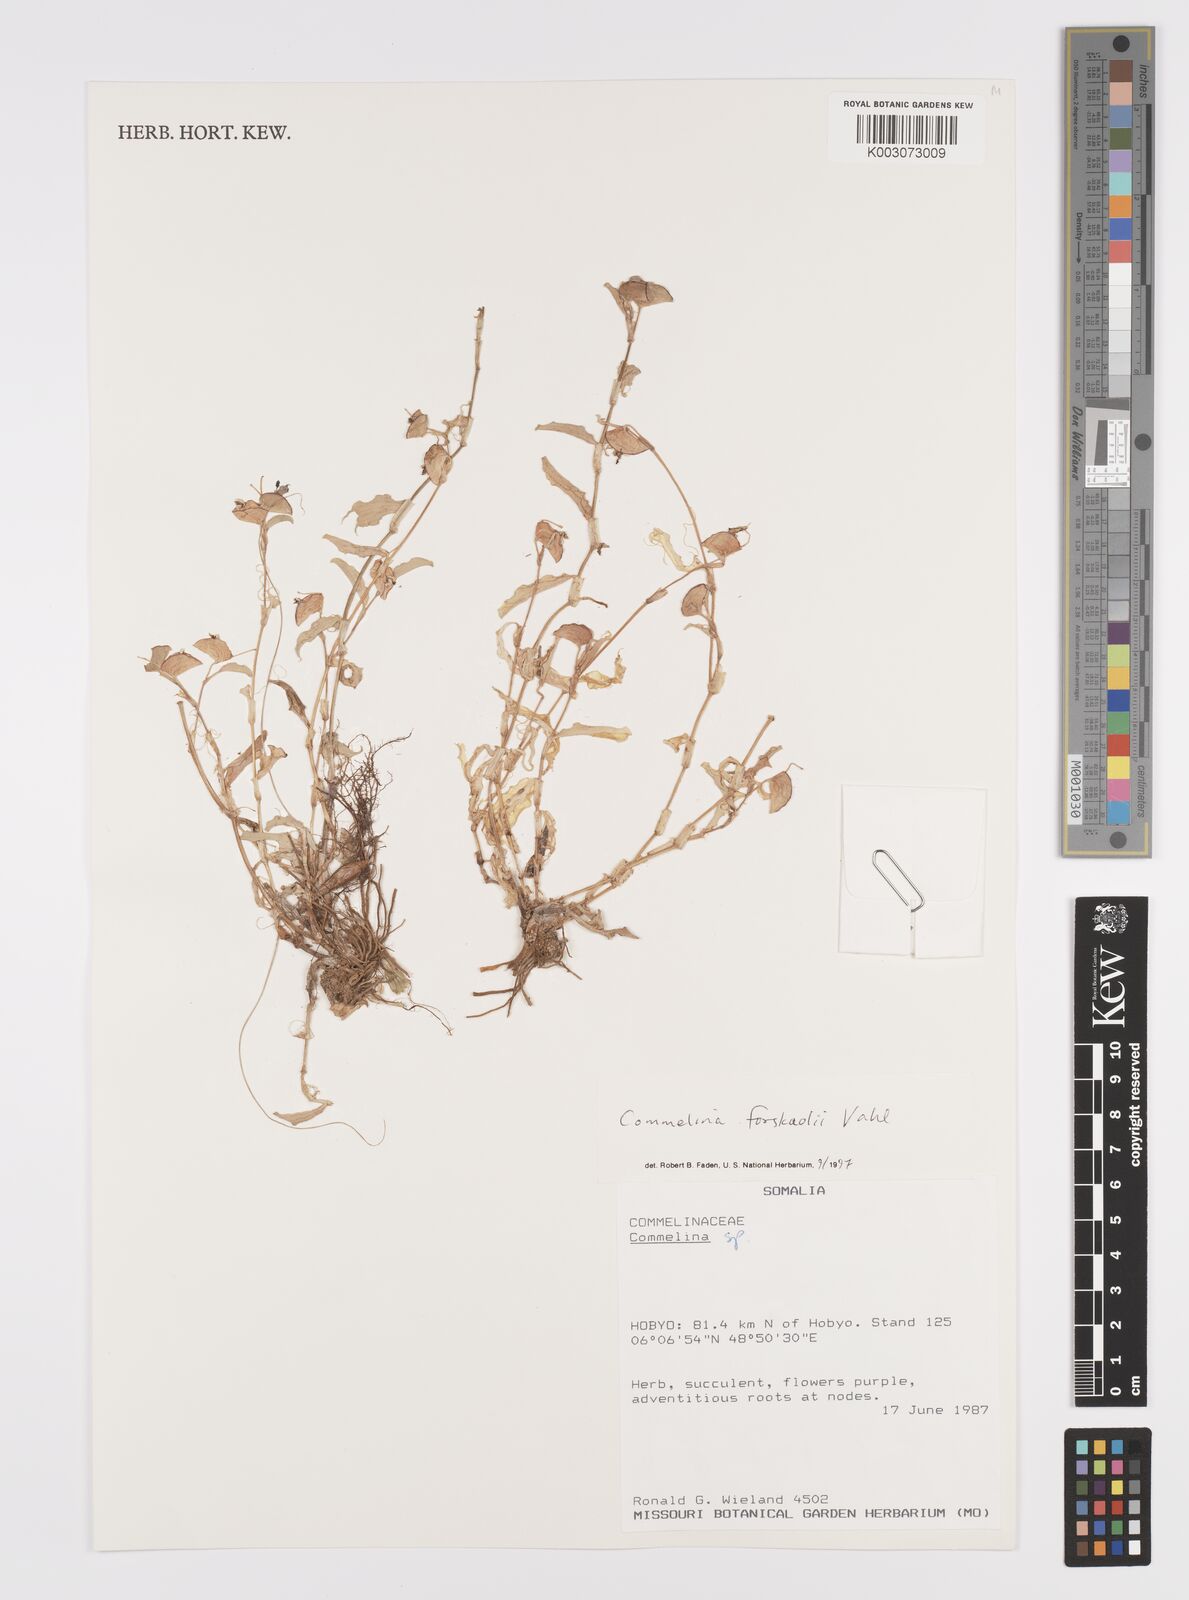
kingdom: Plantae
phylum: Tracheophyta
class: Liliopsida
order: Commelinales
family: Commelinaceae
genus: Commelina
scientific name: Commelina forskaolii
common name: Rat's ear
